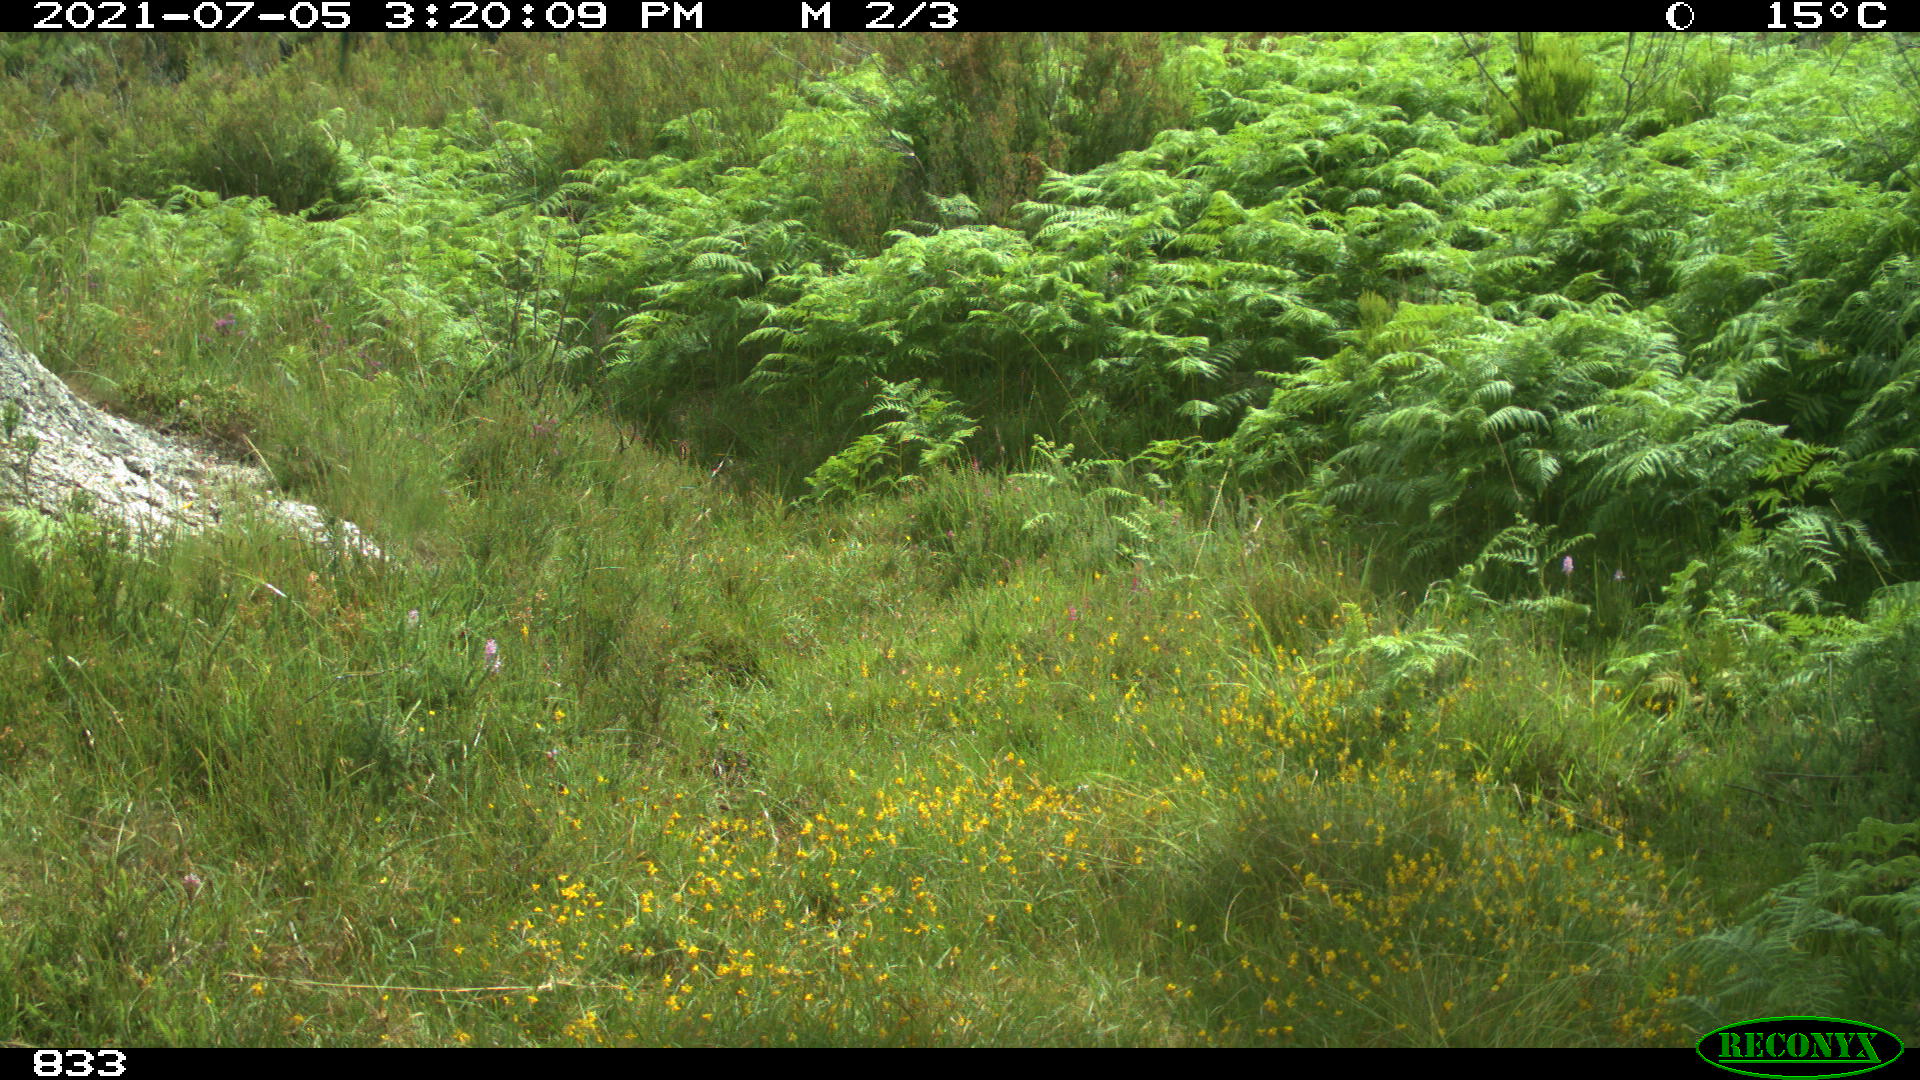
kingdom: Animalia
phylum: Chordata
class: Mammalia
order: Perissodactyla
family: Equidae
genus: Equus
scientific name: Equus caballus
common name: Horse
